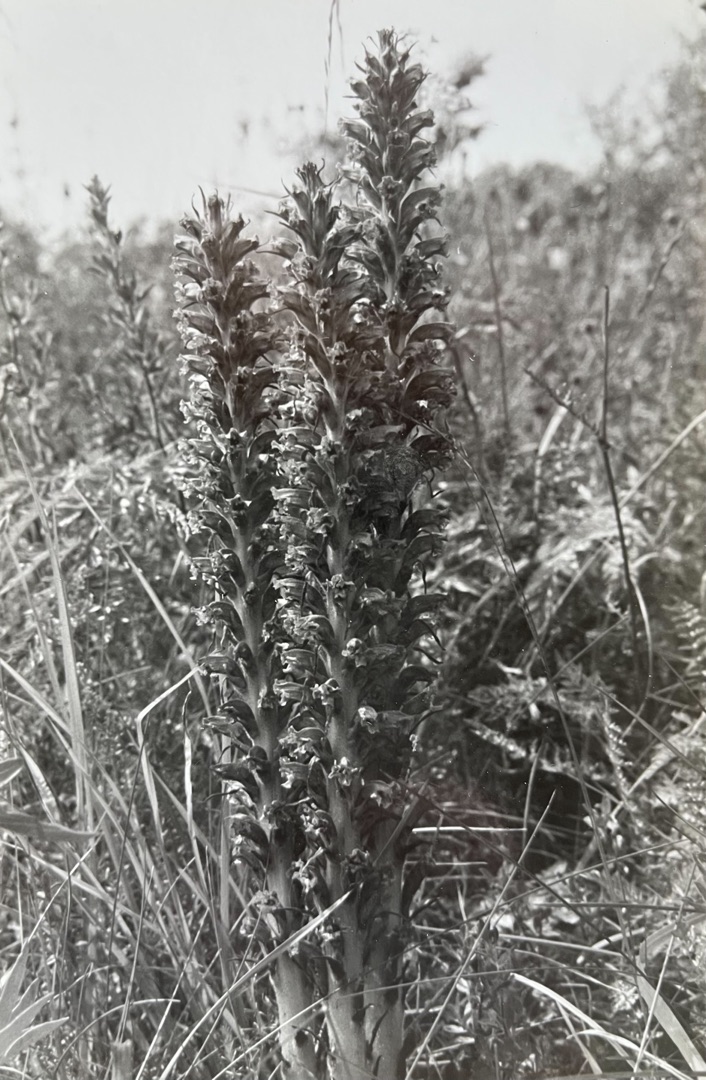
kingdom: Plantae
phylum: Tracheophyta
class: Magnoliopsida
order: Lamiales
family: Orobanchaceae
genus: Orobanche
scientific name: Orobanche elatior
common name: Stor gyvelkvæler
